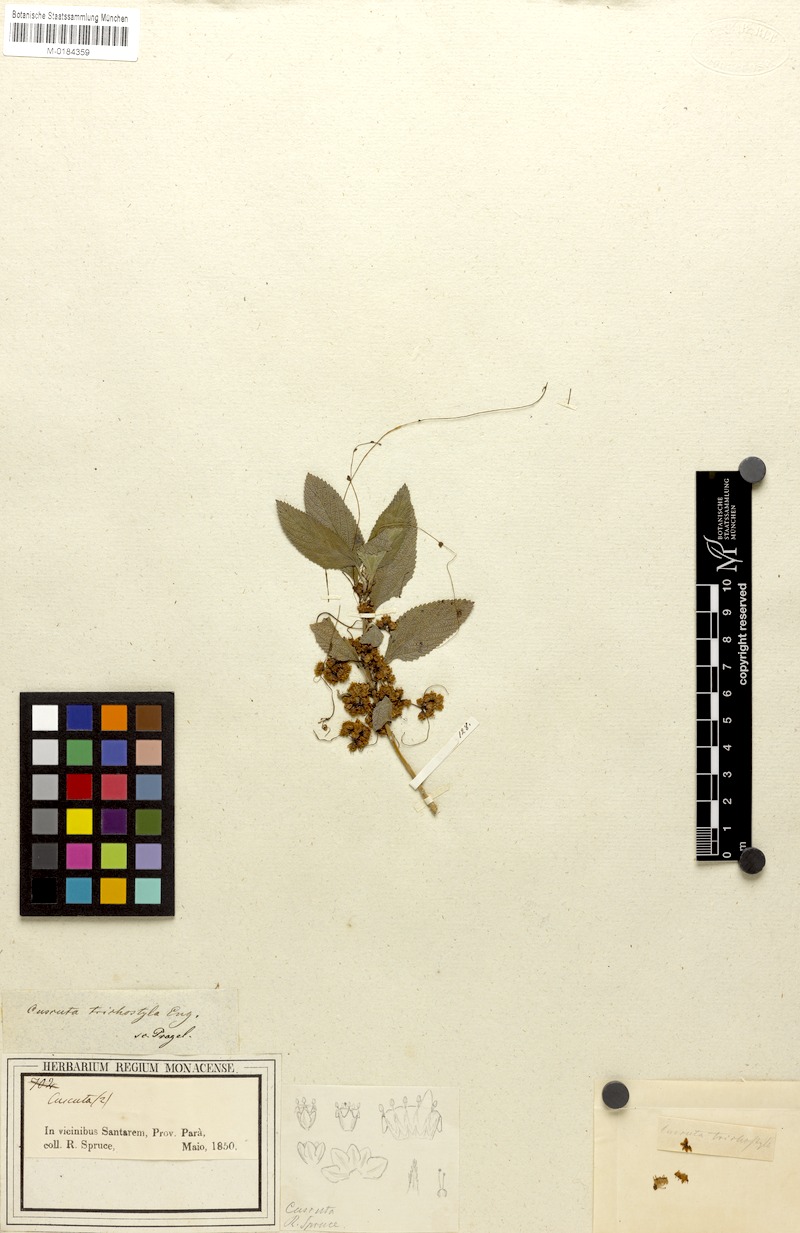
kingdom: Plantae
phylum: Tracheophyta
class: Magnoliopsida
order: Solanales
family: Convolvulaceae
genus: Cuscuta
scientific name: Cuscuta xanthochortos
